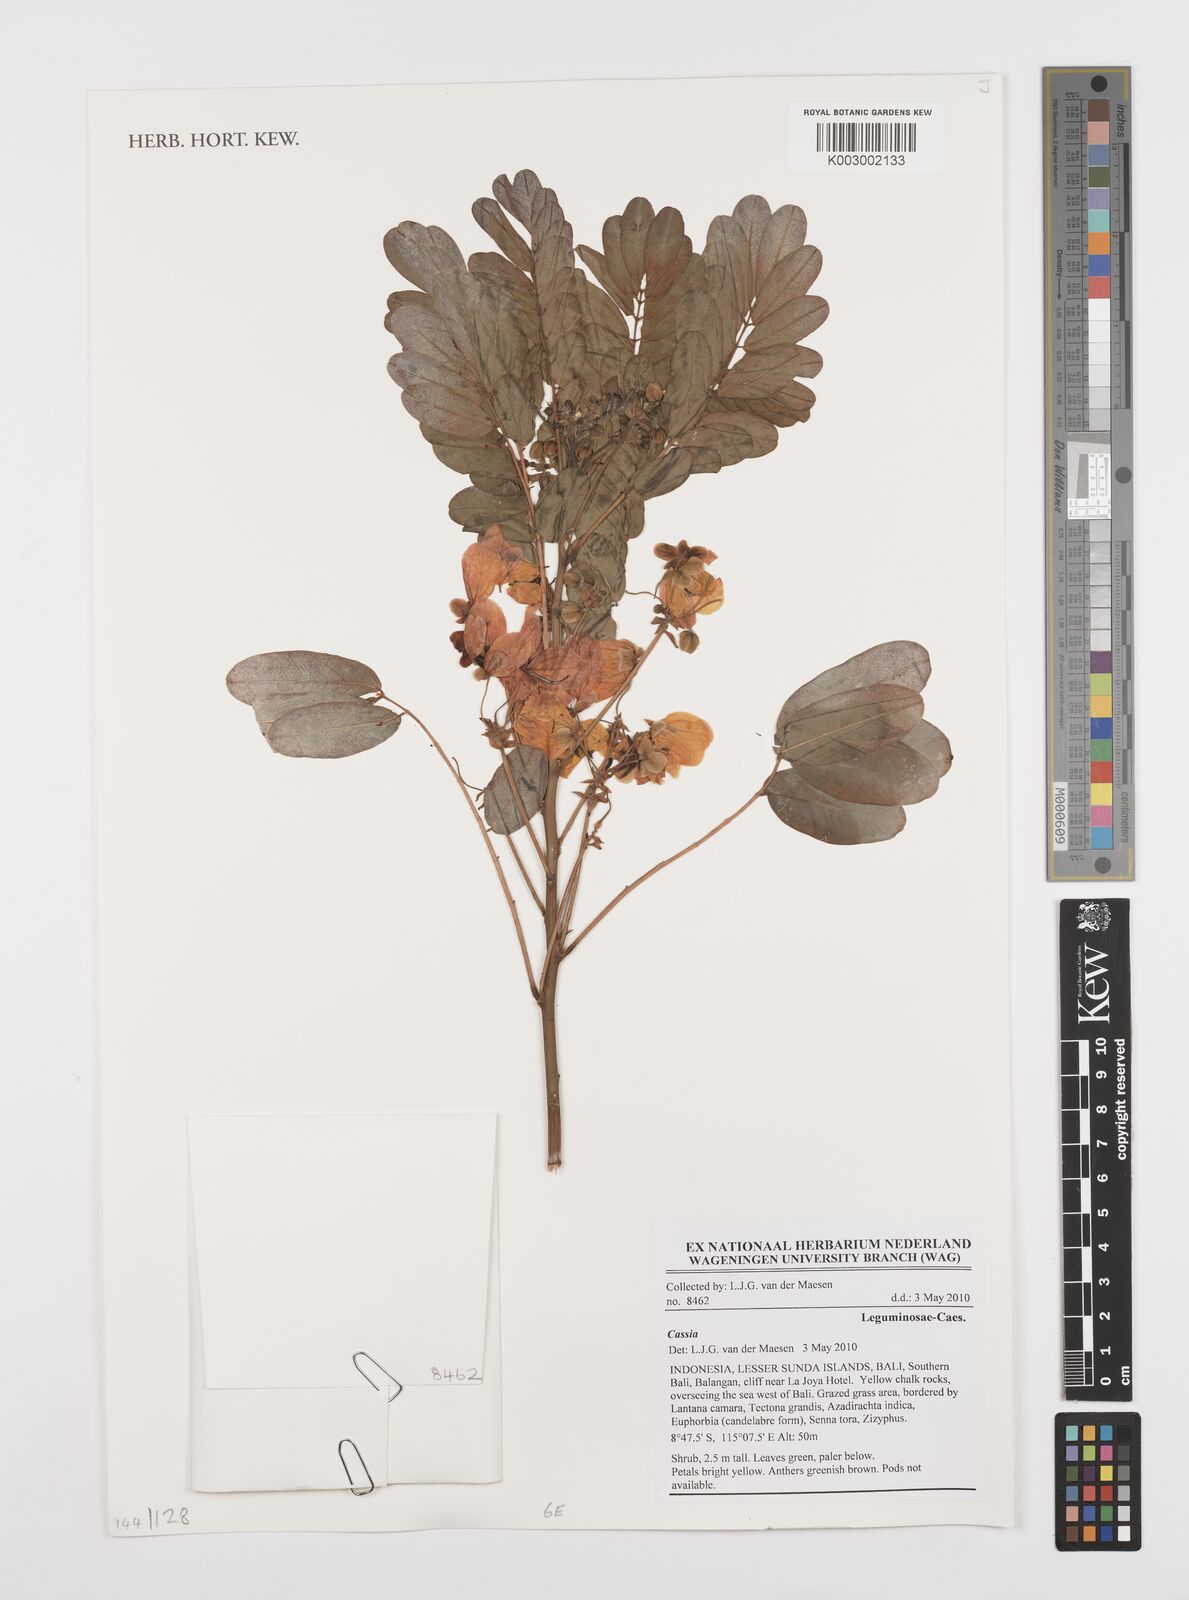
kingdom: Plantae
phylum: Tracheophyta
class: Magnoliopsida
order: Fabales
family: Fabaceae
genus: Cassia
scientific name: Cassia
